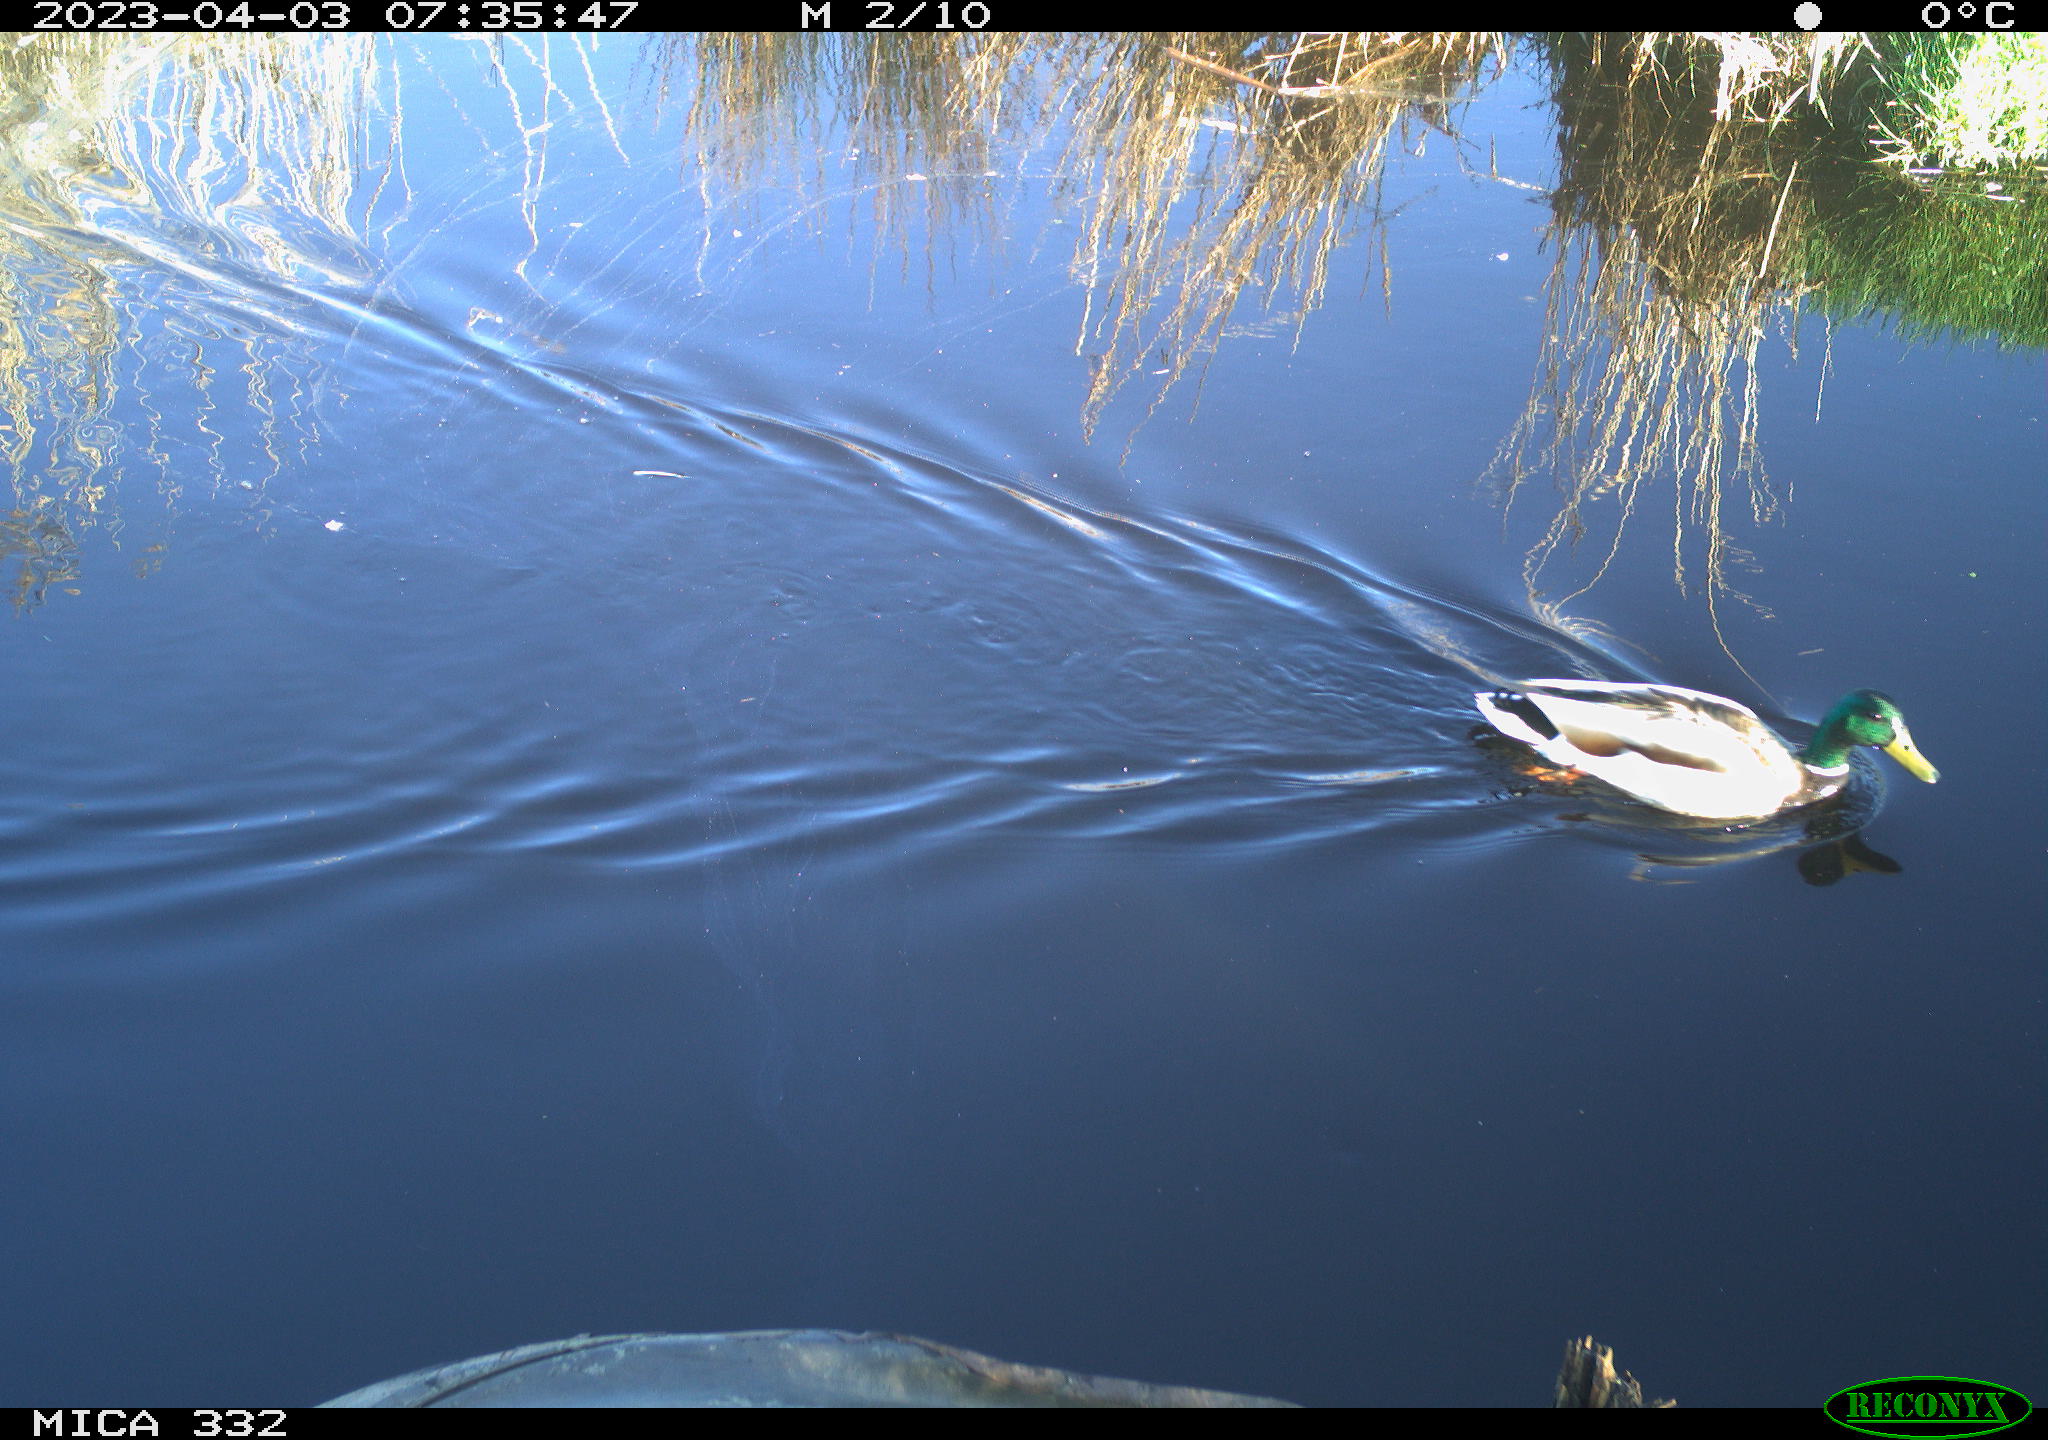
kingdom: Animalia
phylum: Chordata
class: Aves
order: Anseriformes
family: Anatidae
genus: Anas
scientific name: Anas
